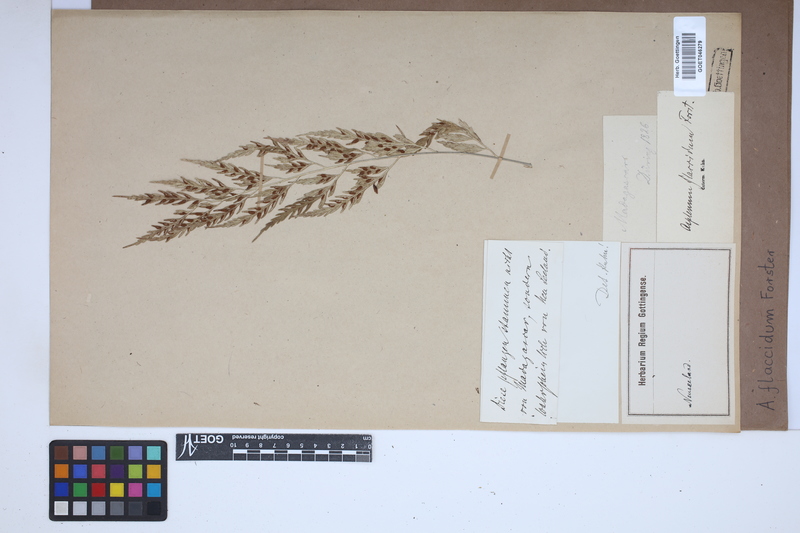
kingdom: Plantae
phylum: Tracheophyta
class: Polypodiopsida
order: Polypodiales
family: Aspleniaceae
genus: Asplenium
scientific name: Asplenium flaccidum
